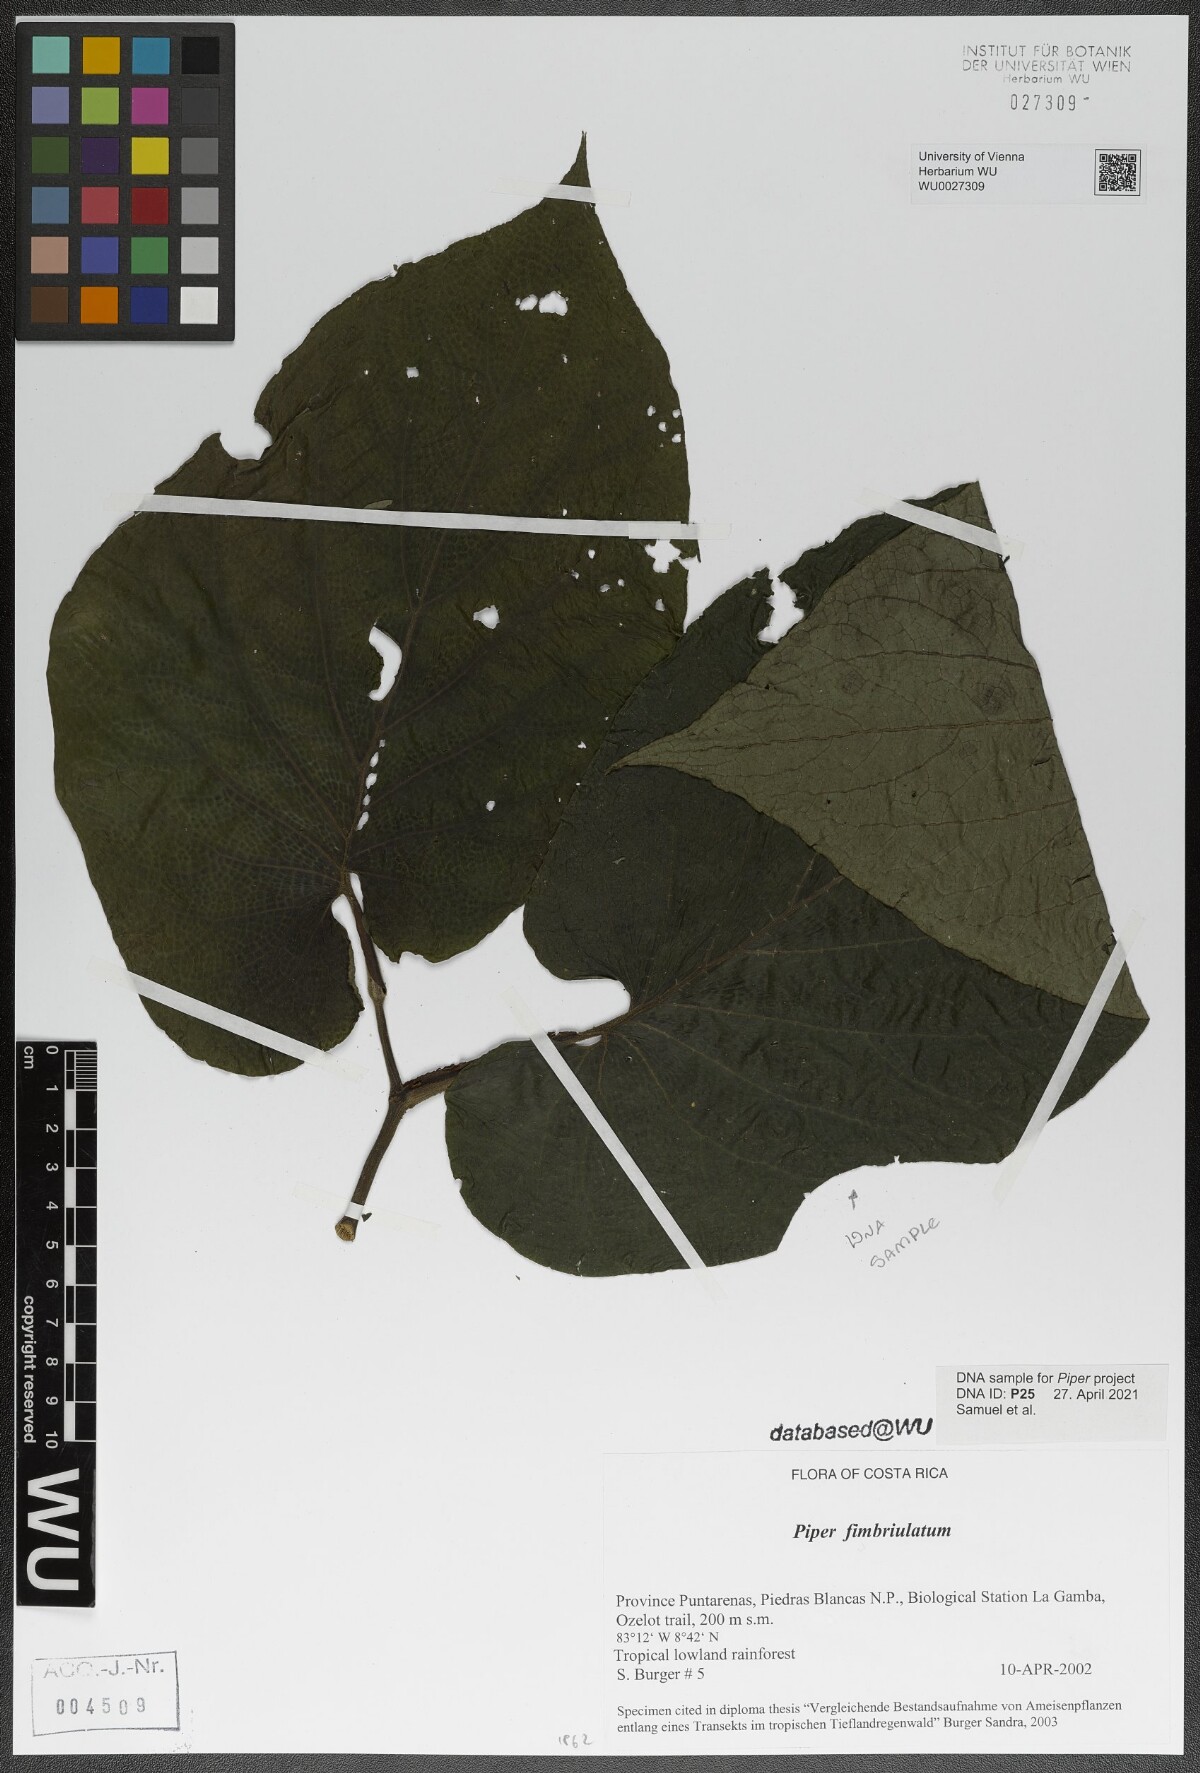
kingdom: Plantae
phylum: Tracheophyta
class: Magnoliopsida
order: Piperales
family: Piperaceae
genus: Piper
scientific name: Piper fimbriulatum
